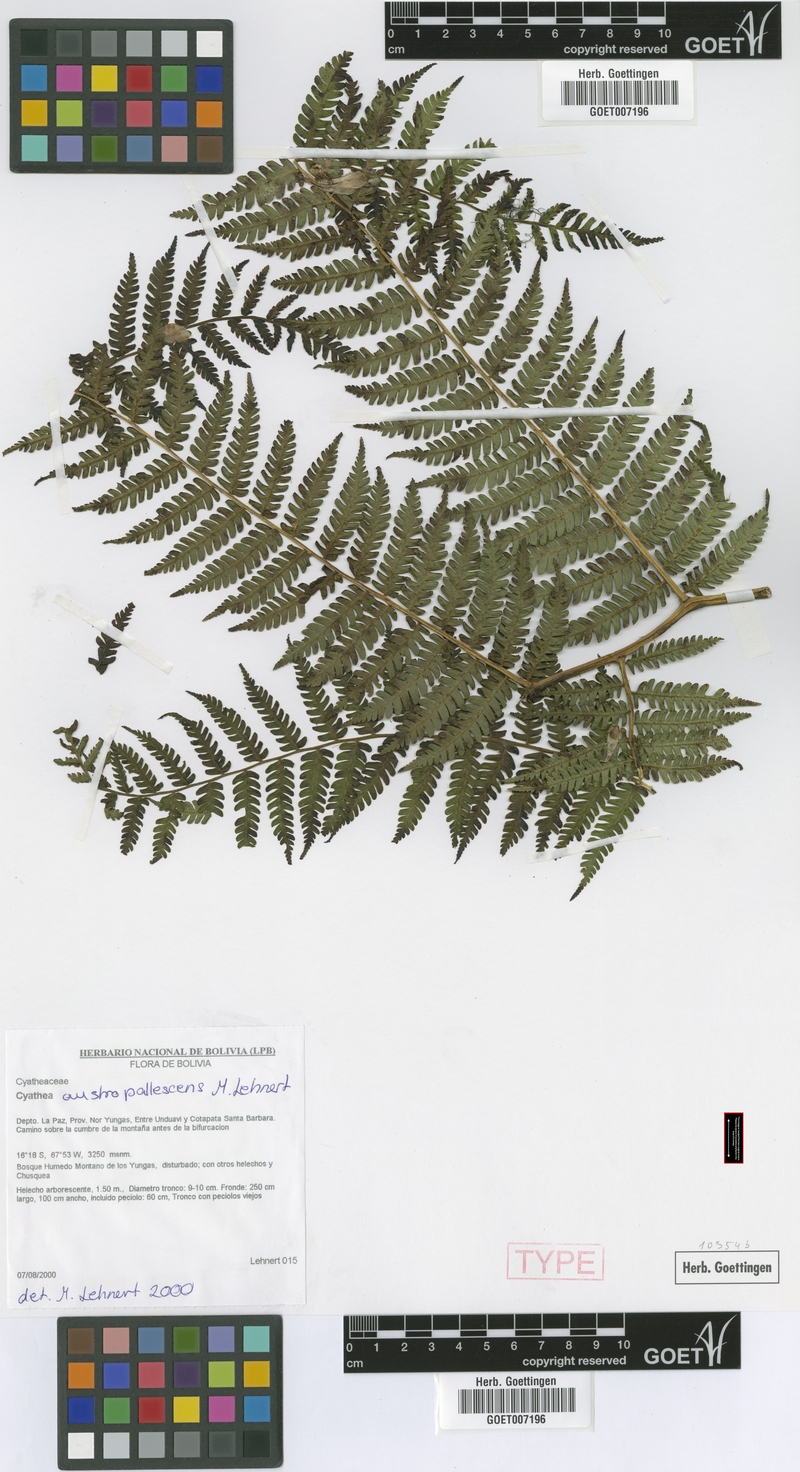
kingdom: Plantae
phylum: Tracheophyta
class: Polypodiopsida
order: Cyatheales
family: Cyatheaceae
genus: Cyathea
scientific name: Cyathea austropallescens
